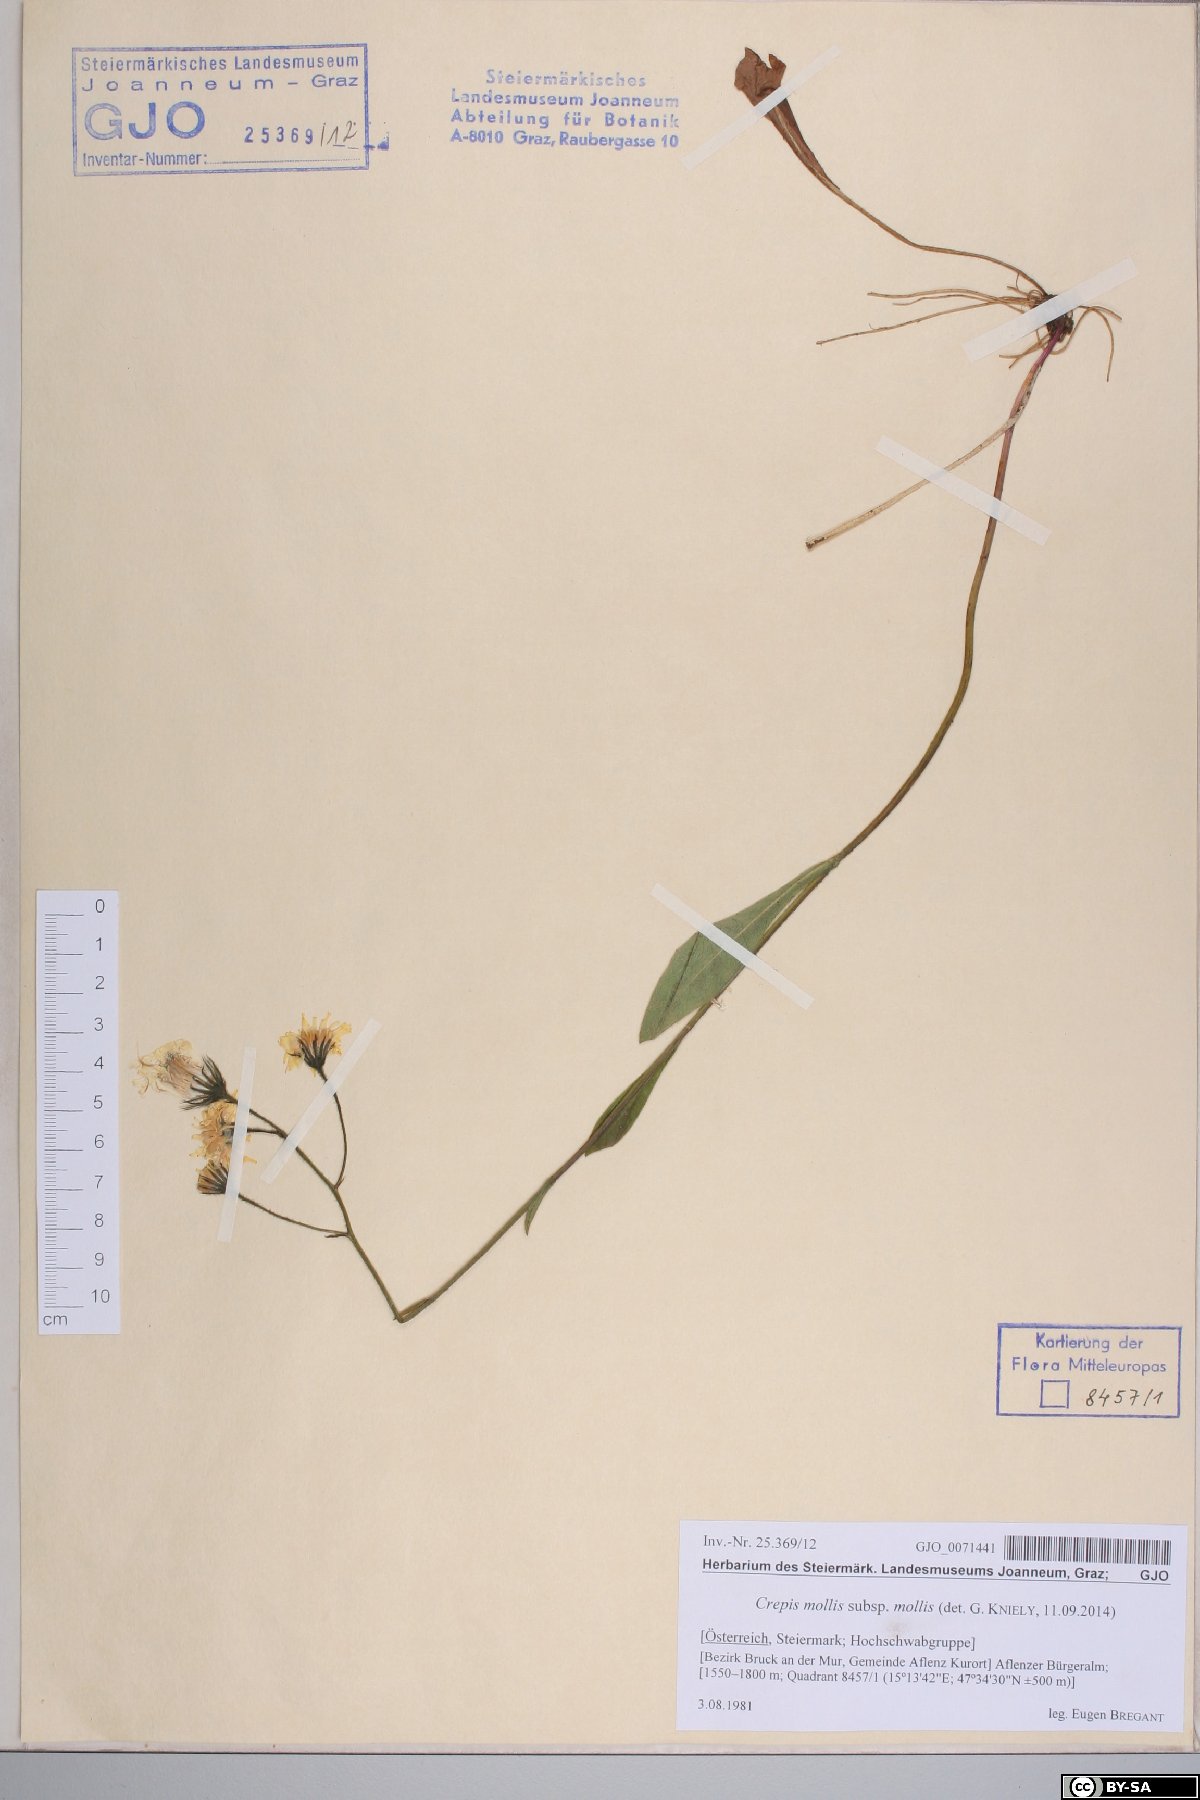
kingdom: Plantae
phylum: Tracheophyta
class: Magnoliopsida
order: Asterales
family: Asteraceae
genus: Crepis
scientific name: Crepis mollis
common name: Northern hawk's-beard
